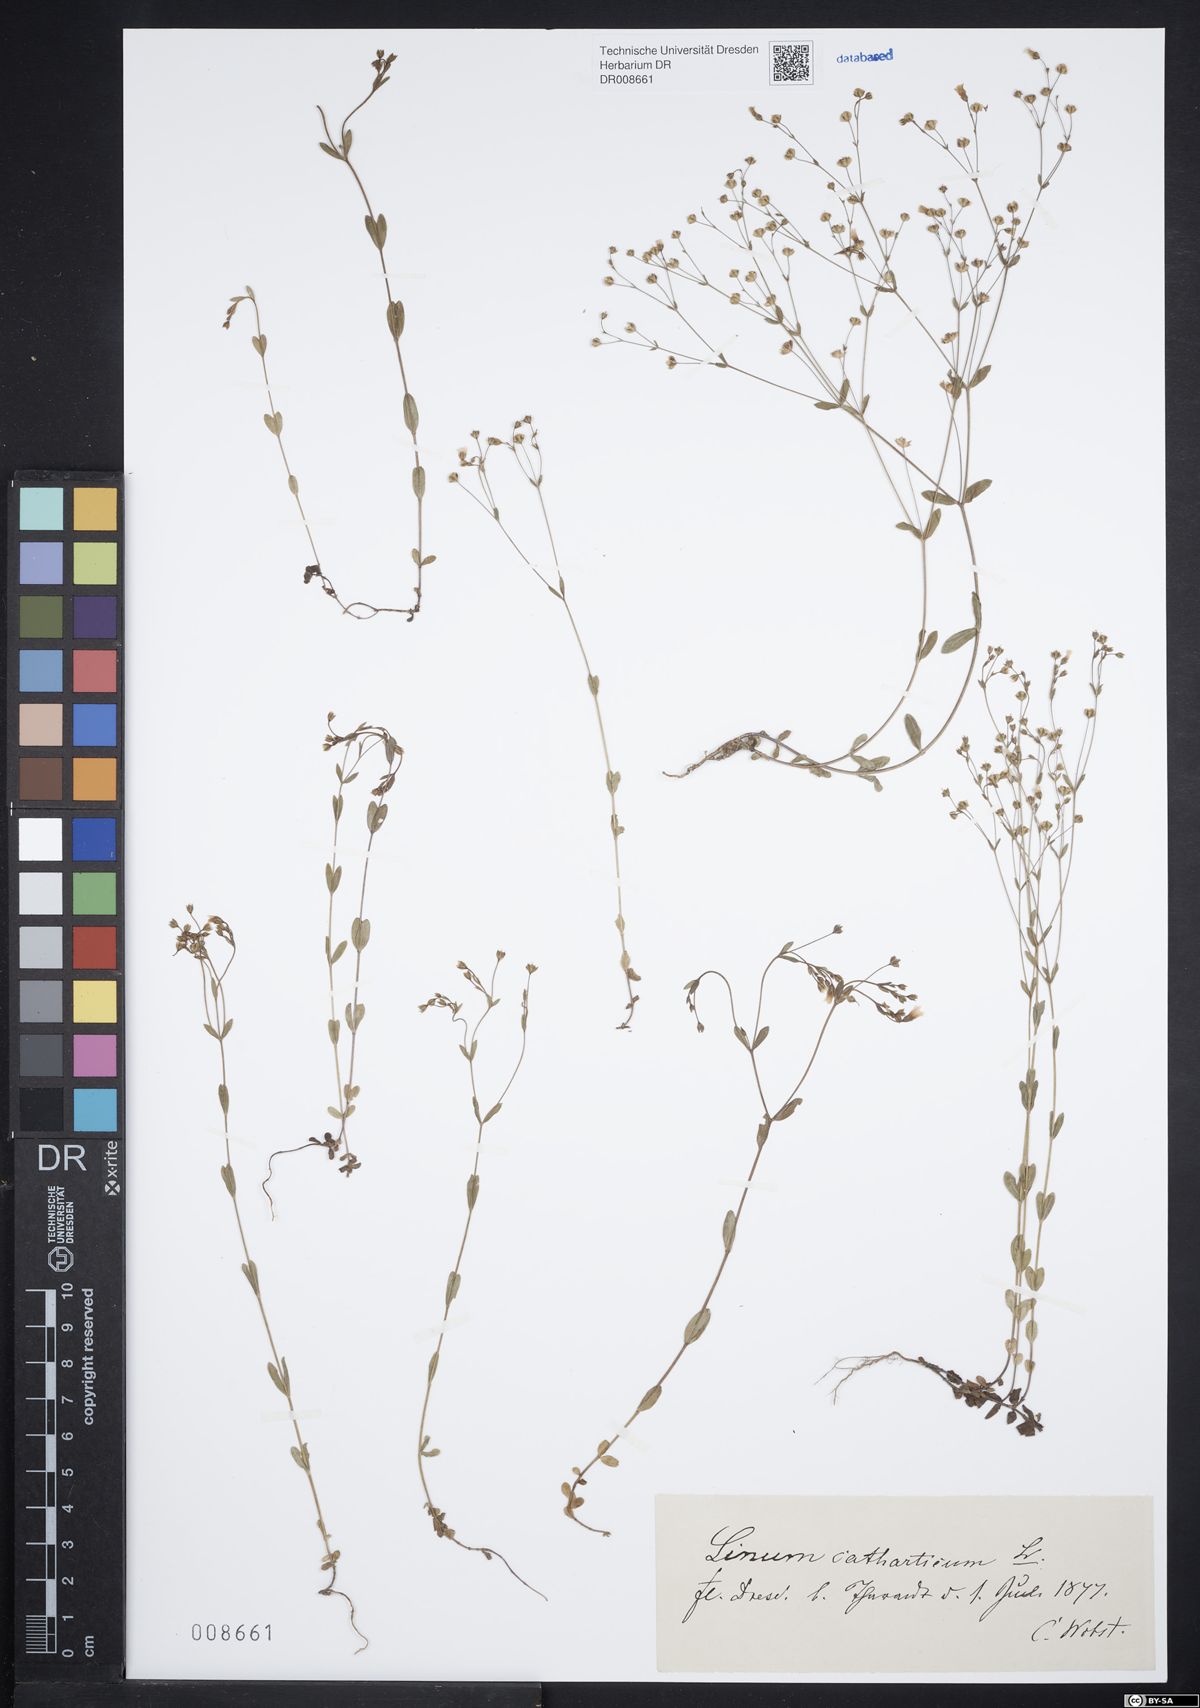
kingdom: Plantae
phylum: Tracheophyta
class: Magnoliopsida
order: Malpighiales
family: Linaceae
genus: Linum
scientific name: Linum catharticum
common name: Fairy flax
